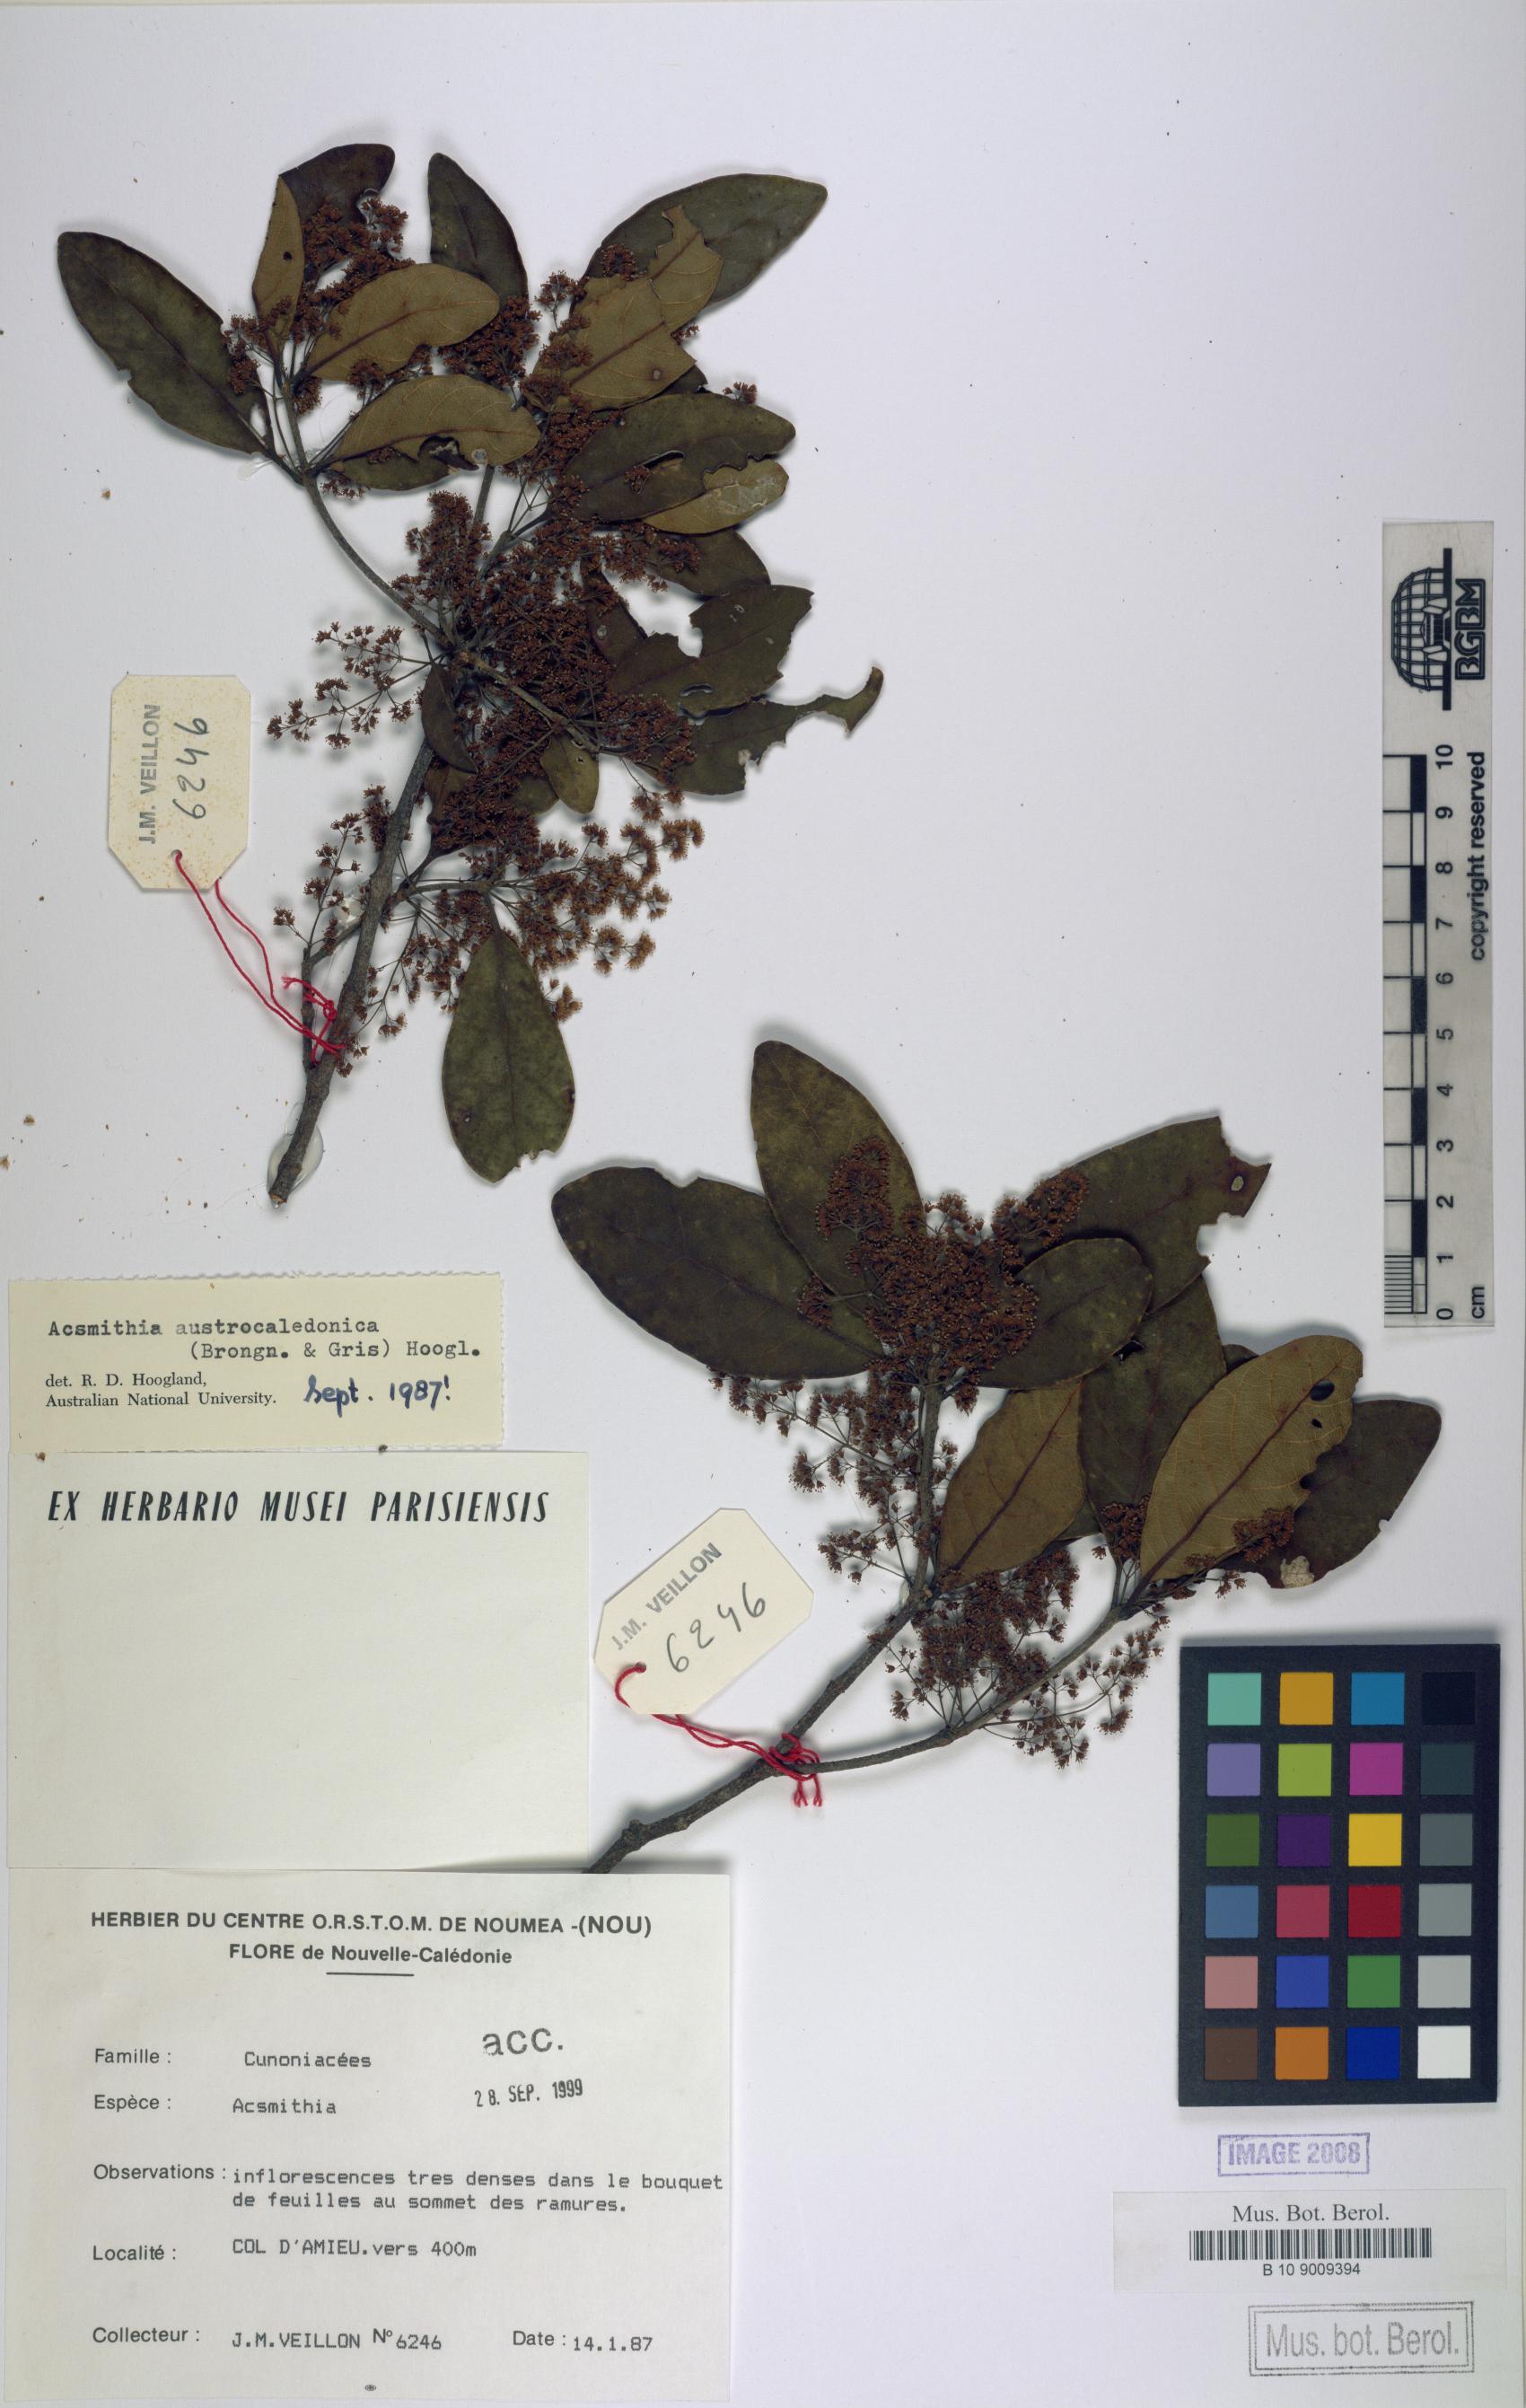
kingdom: Plantae
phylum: Tracheophyta
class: Magnoliopsida
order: Oxalidales
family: Cunoniaceae
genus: Spiraeanthemum
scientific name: Spiraeanthemum densiflorum
